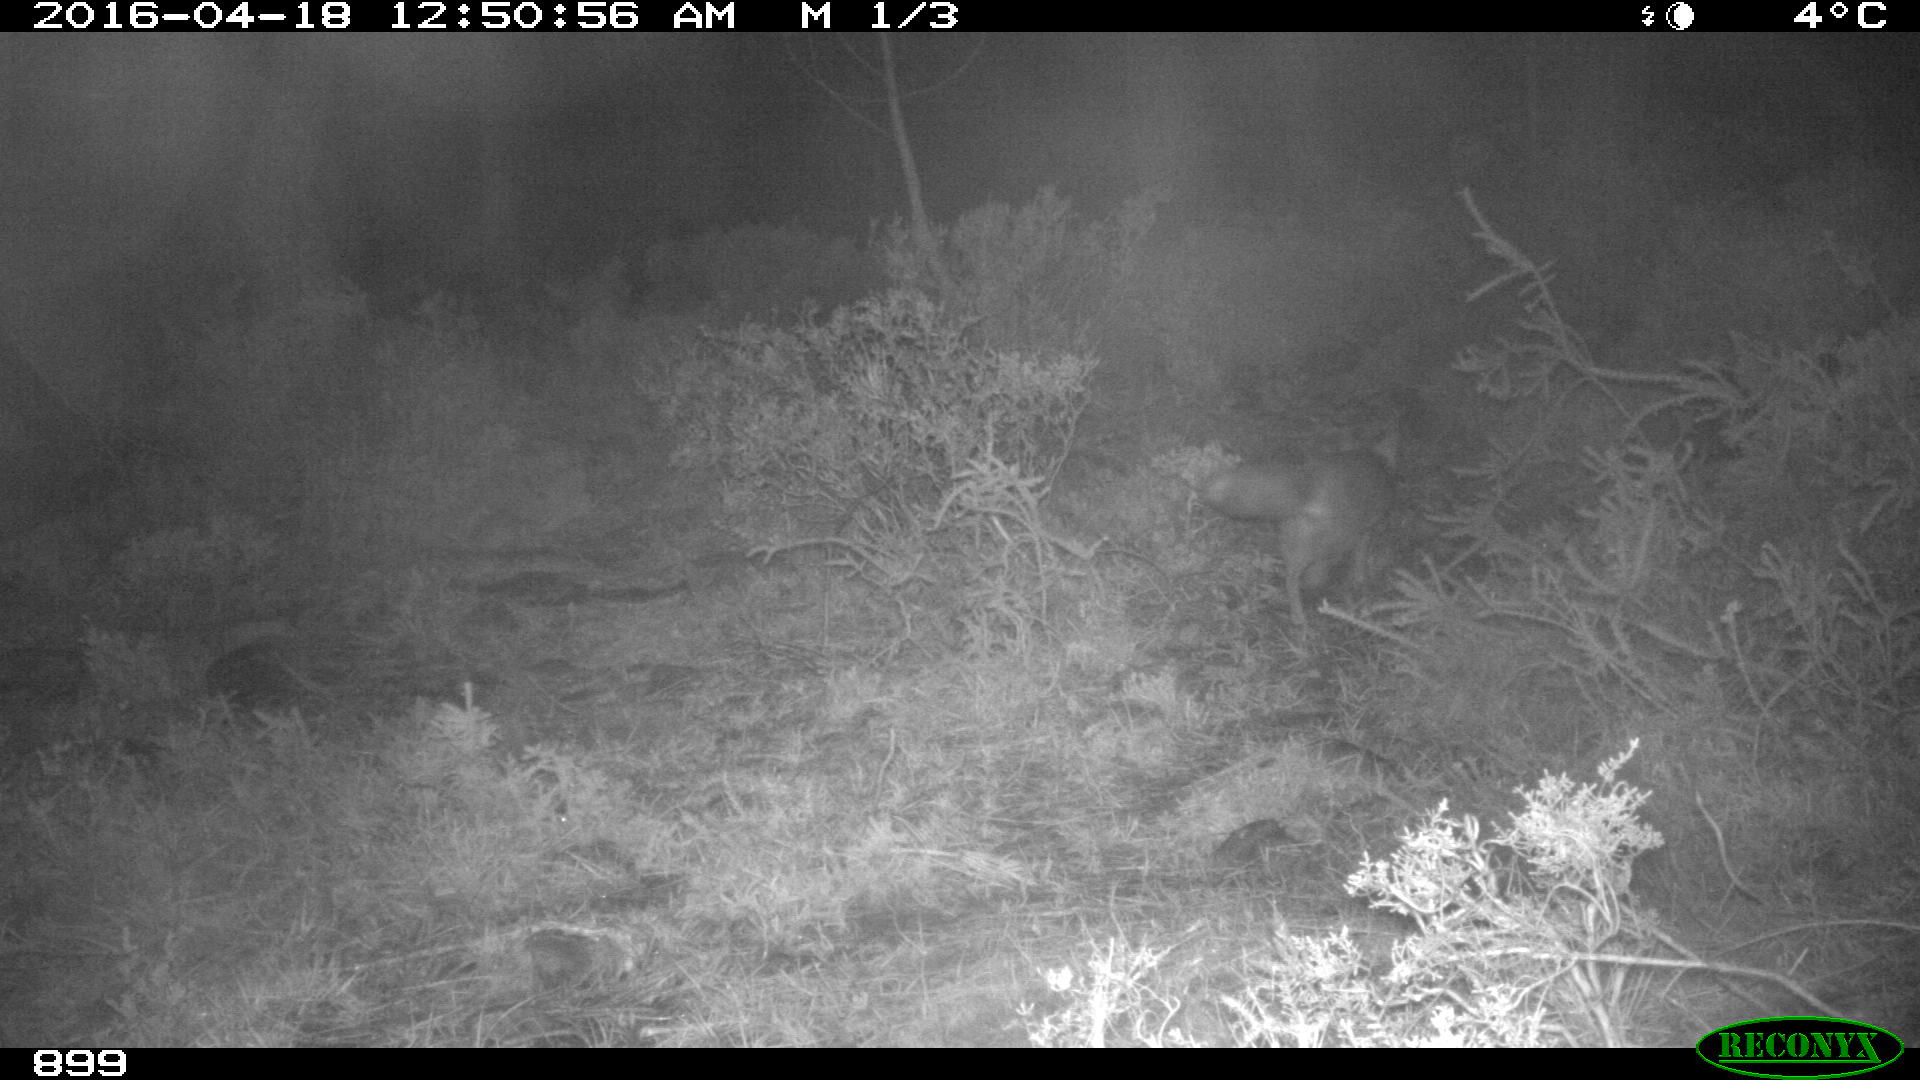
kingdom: Animalia
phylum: Chordata
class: Mammalia
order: Carnivora
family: Canidae
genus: Vulpes
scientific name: Vulpes vulpes
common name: Red fox
